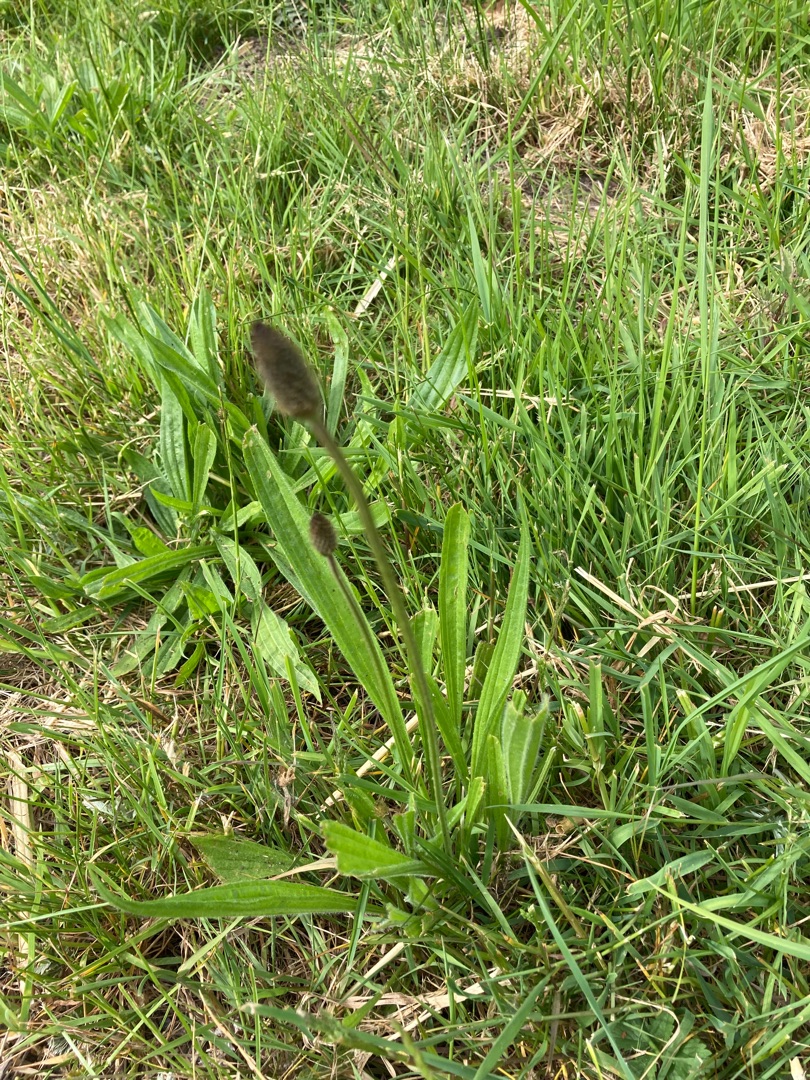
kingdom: Plantae
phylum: Tracheophyta
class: Magnoliopsida
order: Lamiales
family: Plantaginaceae
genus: Plantago
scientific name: Plantago lanceolata
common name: Lancet-vejbred
